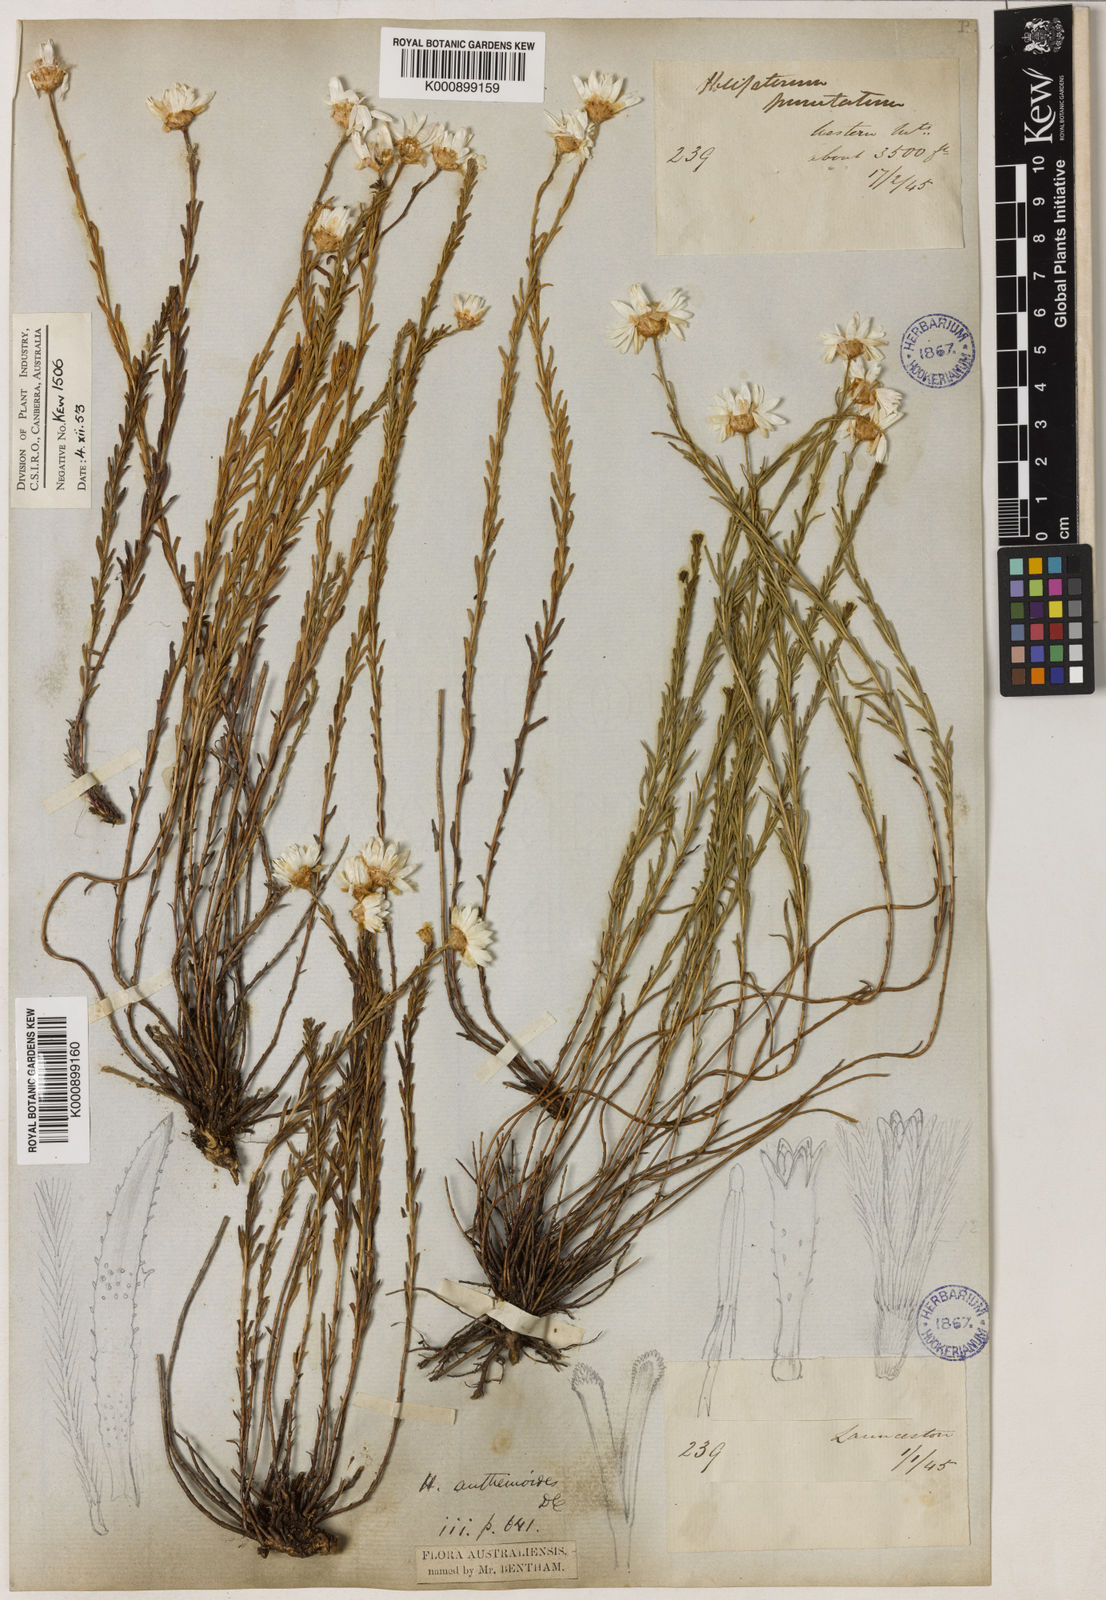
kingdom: Plantae
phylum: Tracheophyta
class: Magnoliopsida
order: Asterales
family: Asteraceae
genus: Rhodanthe
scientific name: Rhodanthe anthemoides
